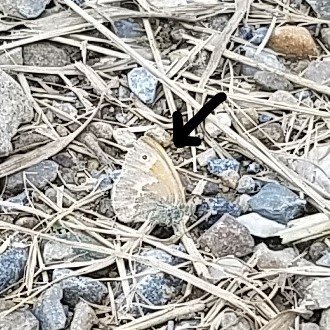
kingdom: Animalia
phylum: Arthropoda
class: Insecta
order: Lepidoptera
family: Nymphalidae
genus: Coenonympha
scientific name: Coenonympha tullia
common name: Large Heath
